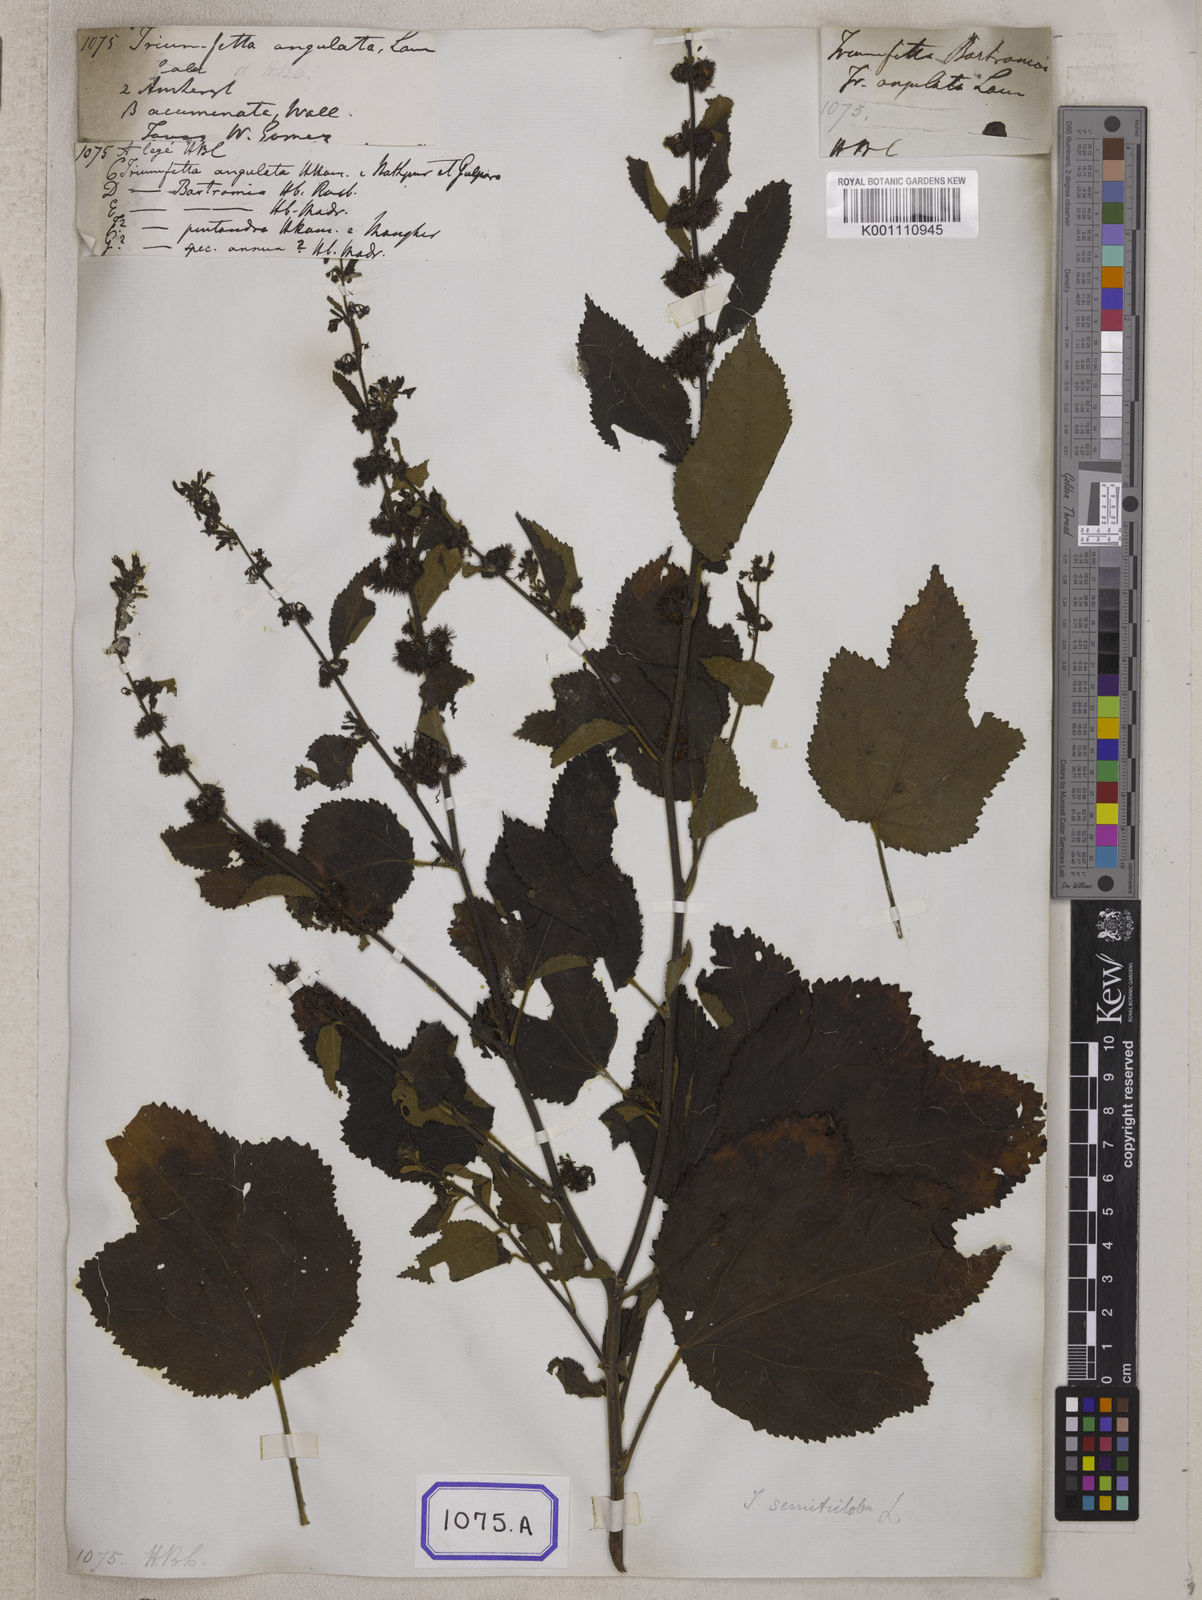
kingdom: Plantae
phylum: Tracheophyta
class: Magnoliopsida
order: Malvales
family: Malvaceae
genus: Triumfetta
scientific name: Triumfetta rhomboidea
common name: Diamond burbark
